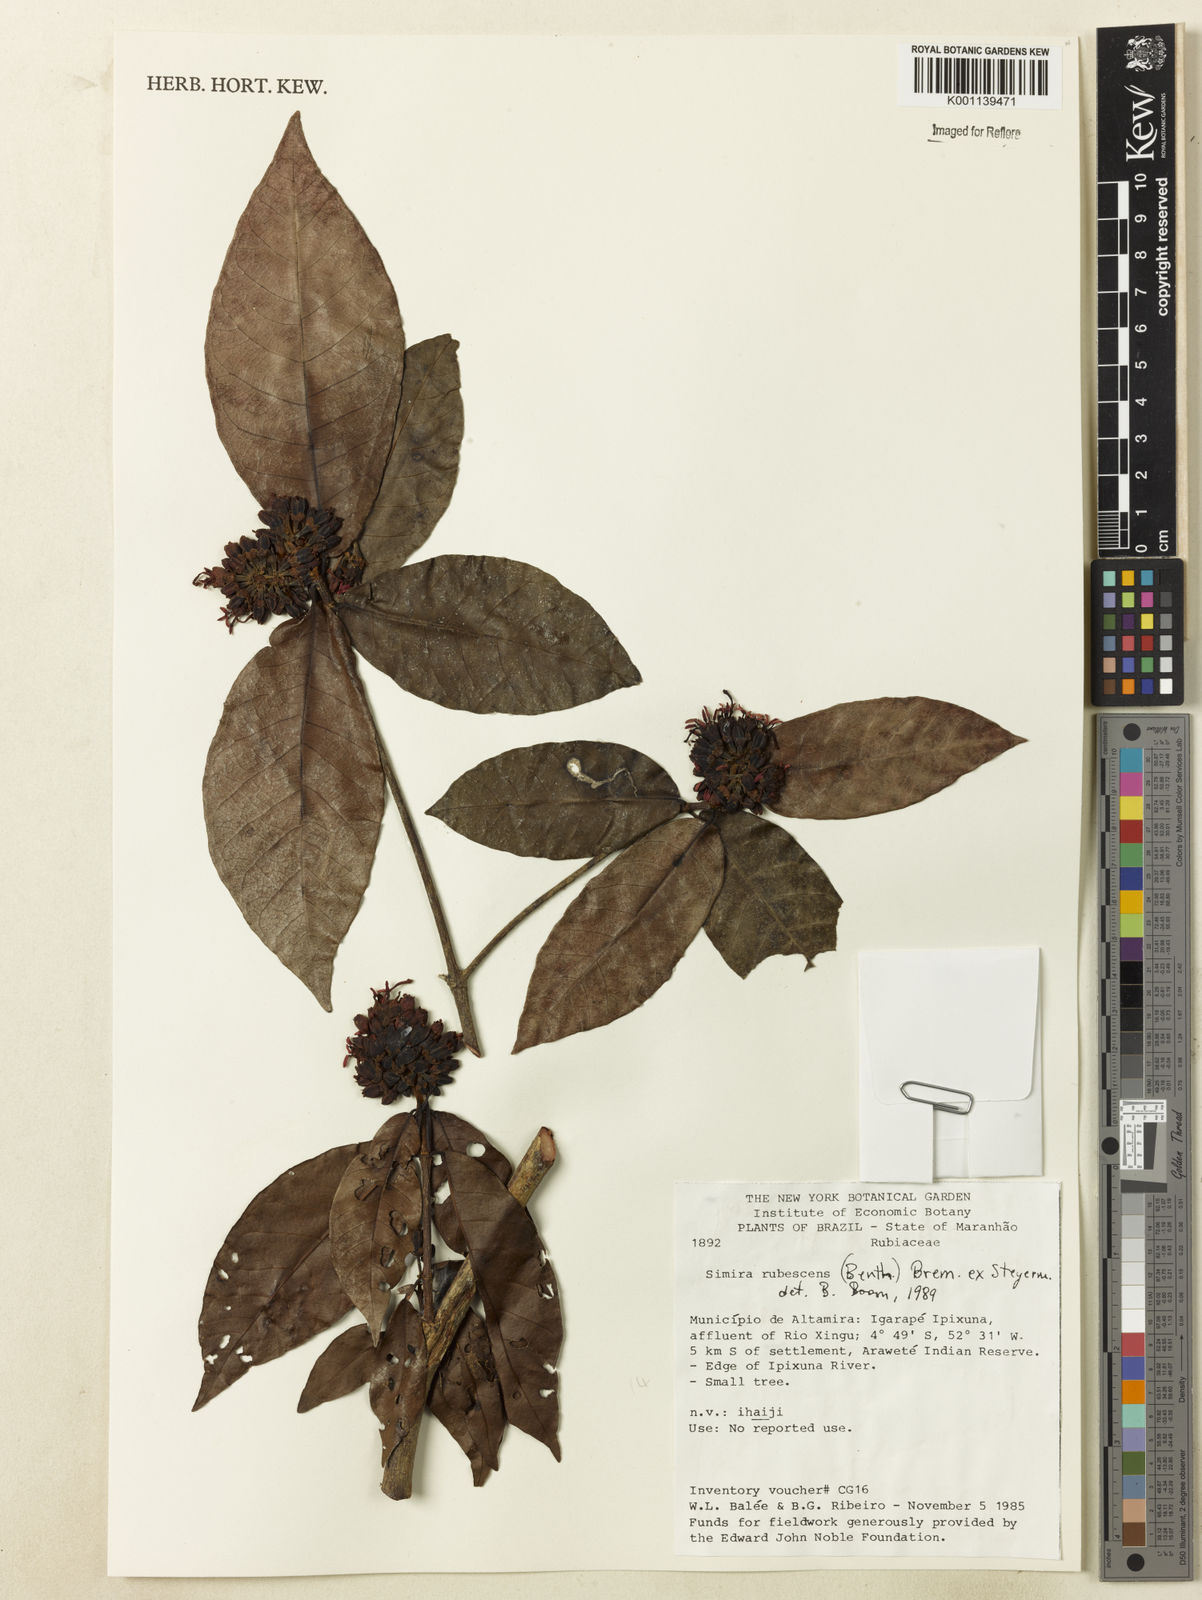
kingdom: Plantae
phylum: Tracheophyta
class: Magnoliopsida
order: Gentianales
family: Rubiaceae
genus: Simira
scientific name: Simira rubescens
